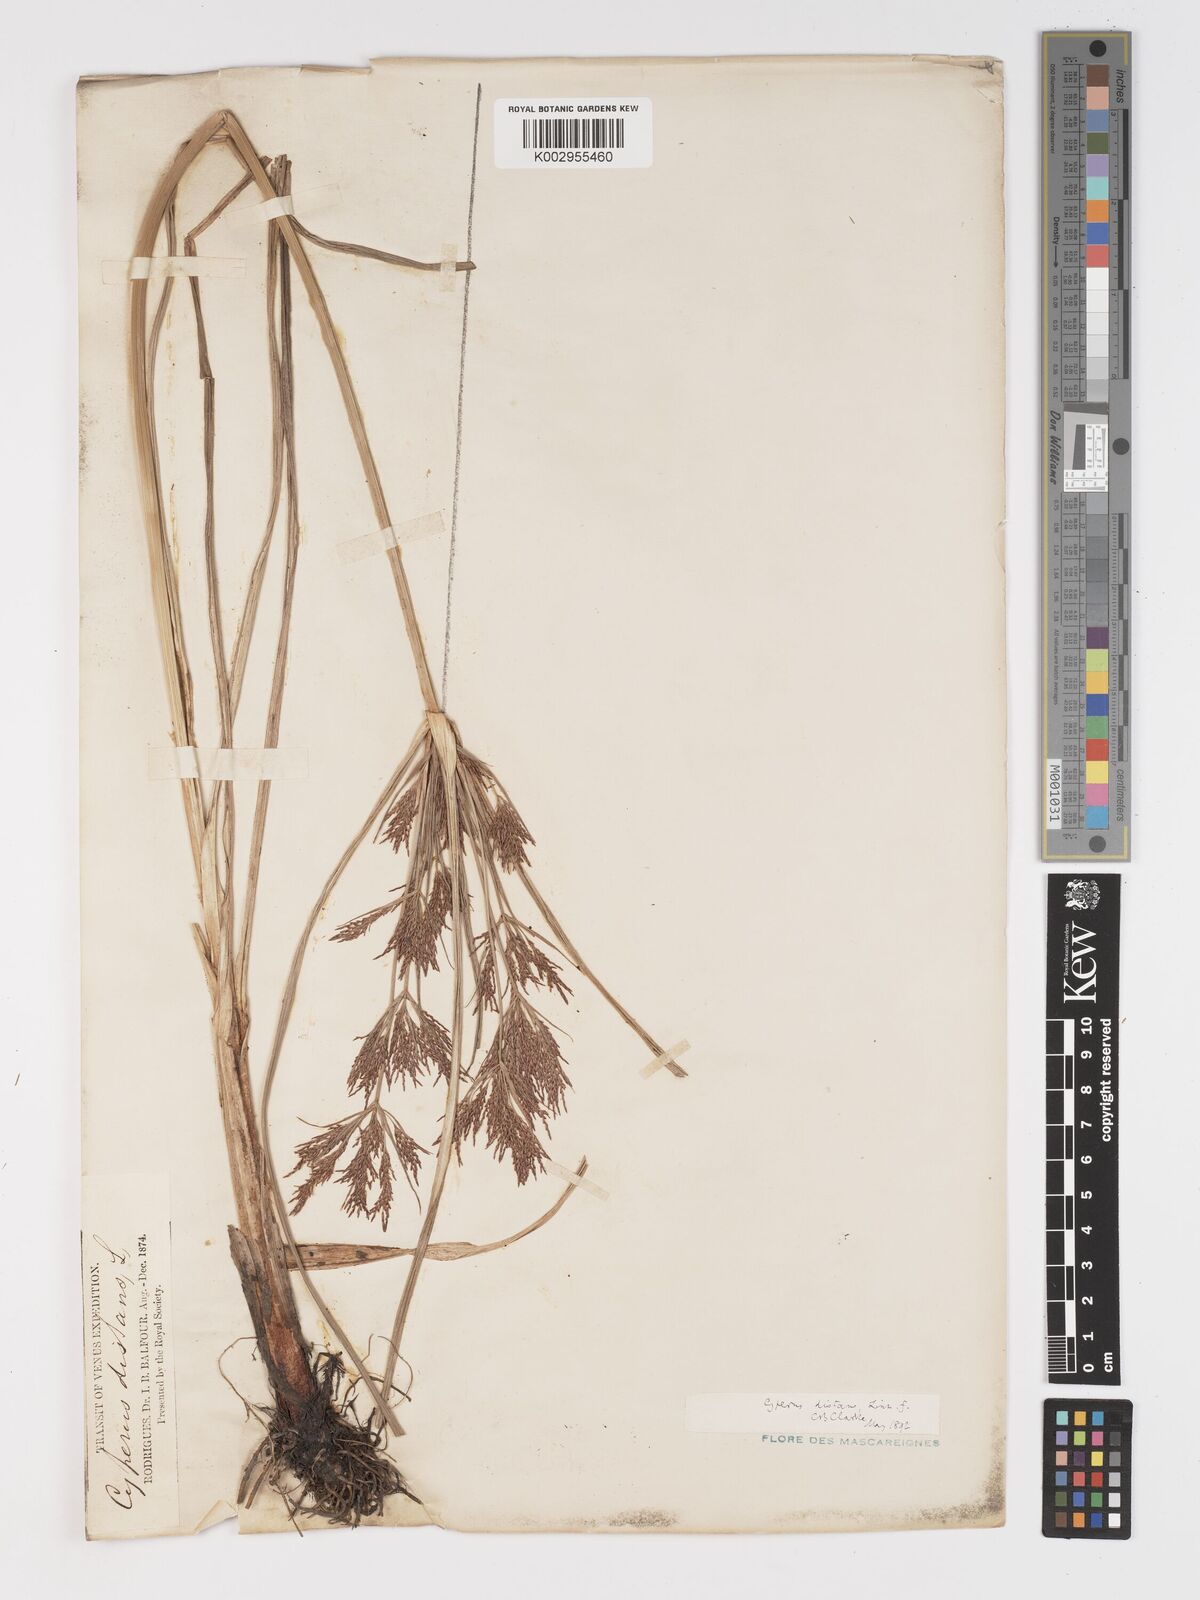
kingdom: Plantae
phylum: Tracheophyta
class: Liliopsida
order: Poales
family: Cyperaceae
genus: Cyperus
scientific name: Cyperus distans
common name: Slender cyperus
